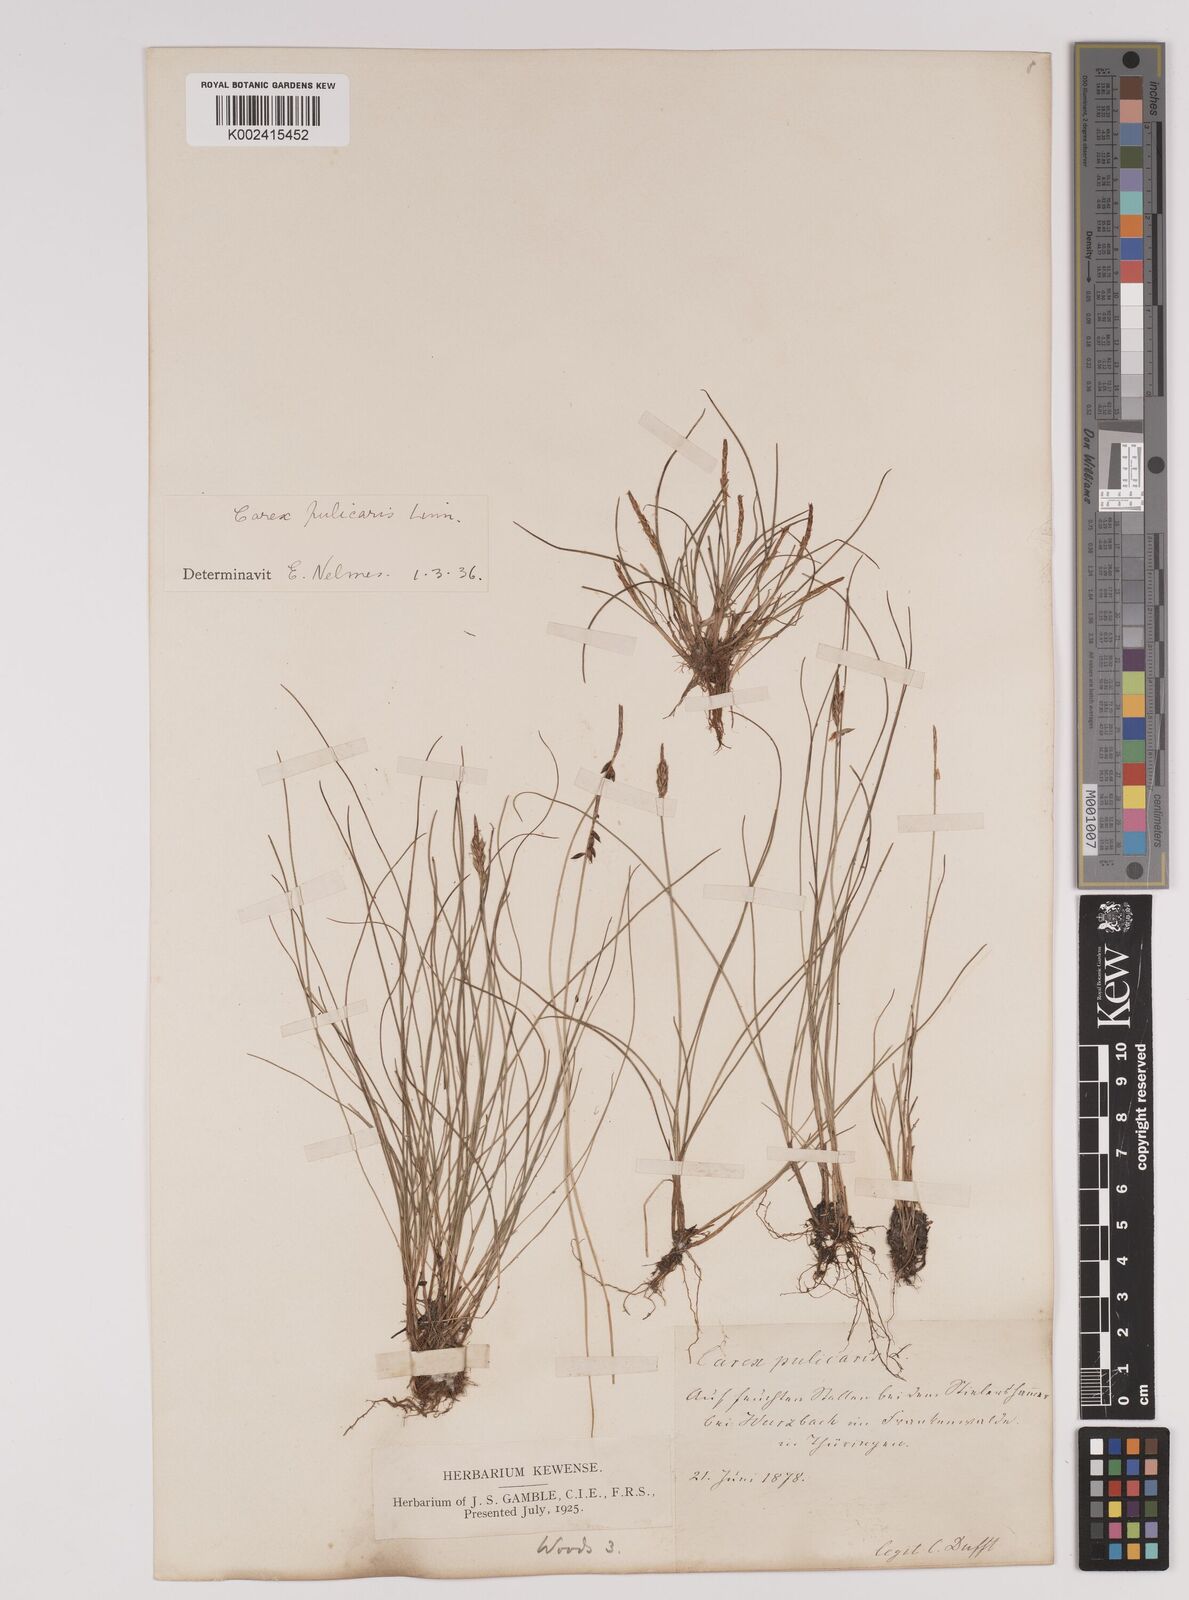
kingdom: Plantae
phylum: Tracheophyta
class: Liliopsida
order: Poales
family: Cyperaceae
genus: Carex
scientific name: Carex pulicaris
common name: Flea sedge
